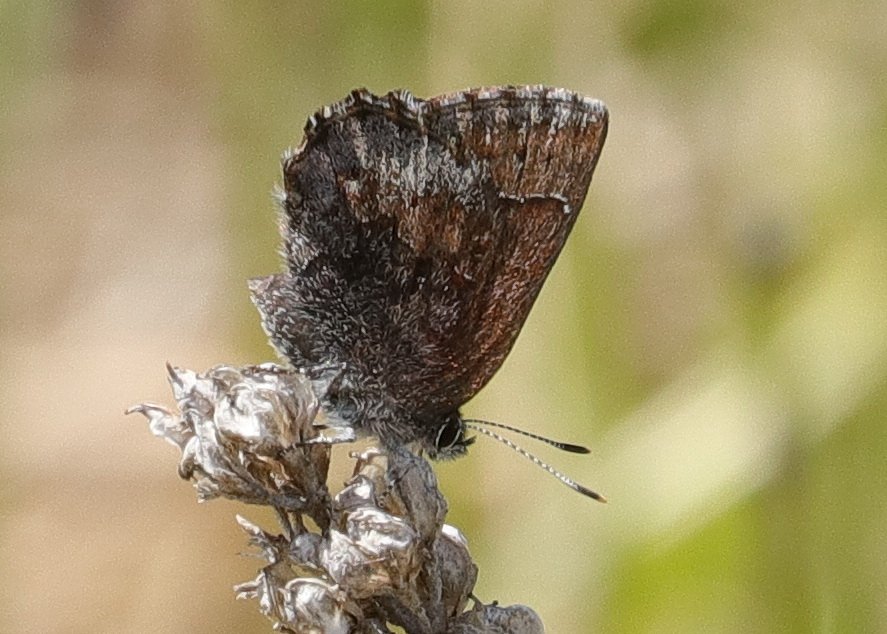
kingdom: Animalia
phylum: Arthropoda
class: Insecta
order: Lepidoptera
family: Lycaenidae
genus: Callophrys
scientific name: Callophrys polios
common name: Hoary Elfin
